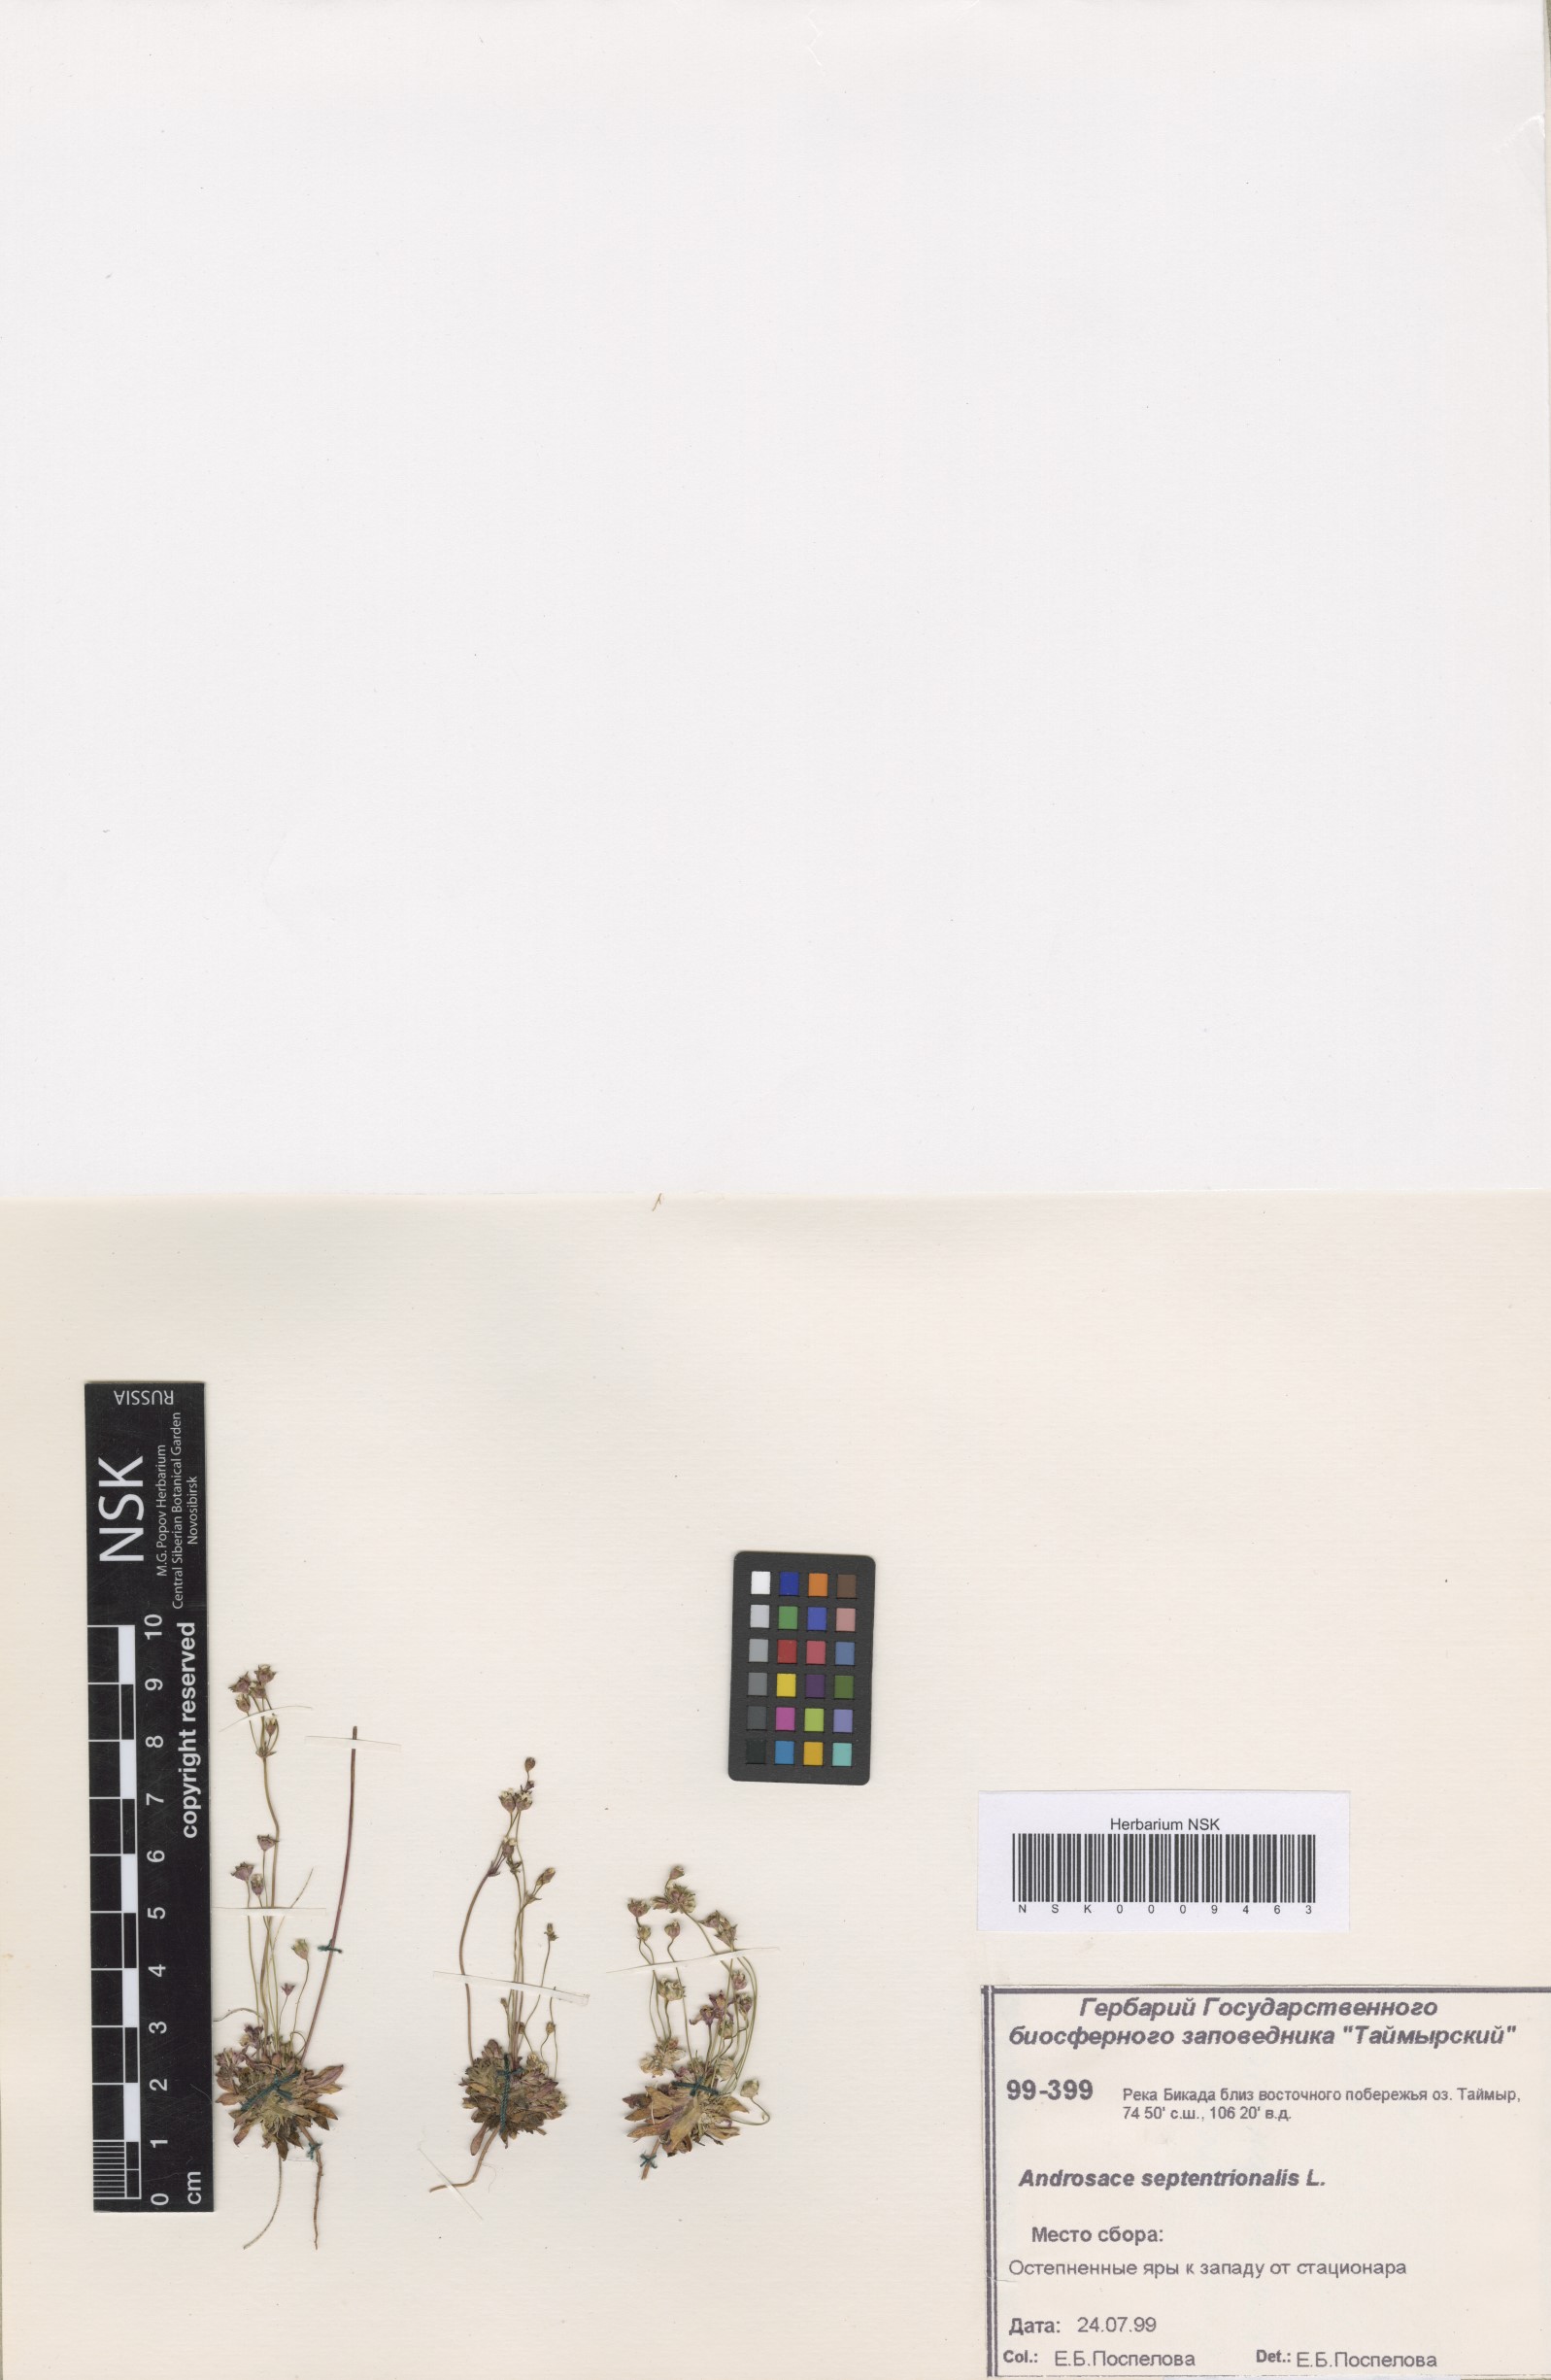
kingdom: Plantae
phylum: Tracheophyta
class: Magnoliopsida
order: Ericales
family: Primulaceae
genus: Androsace
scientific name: Androsace septentrionalis
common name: Hairy northern fairy-candelabra
